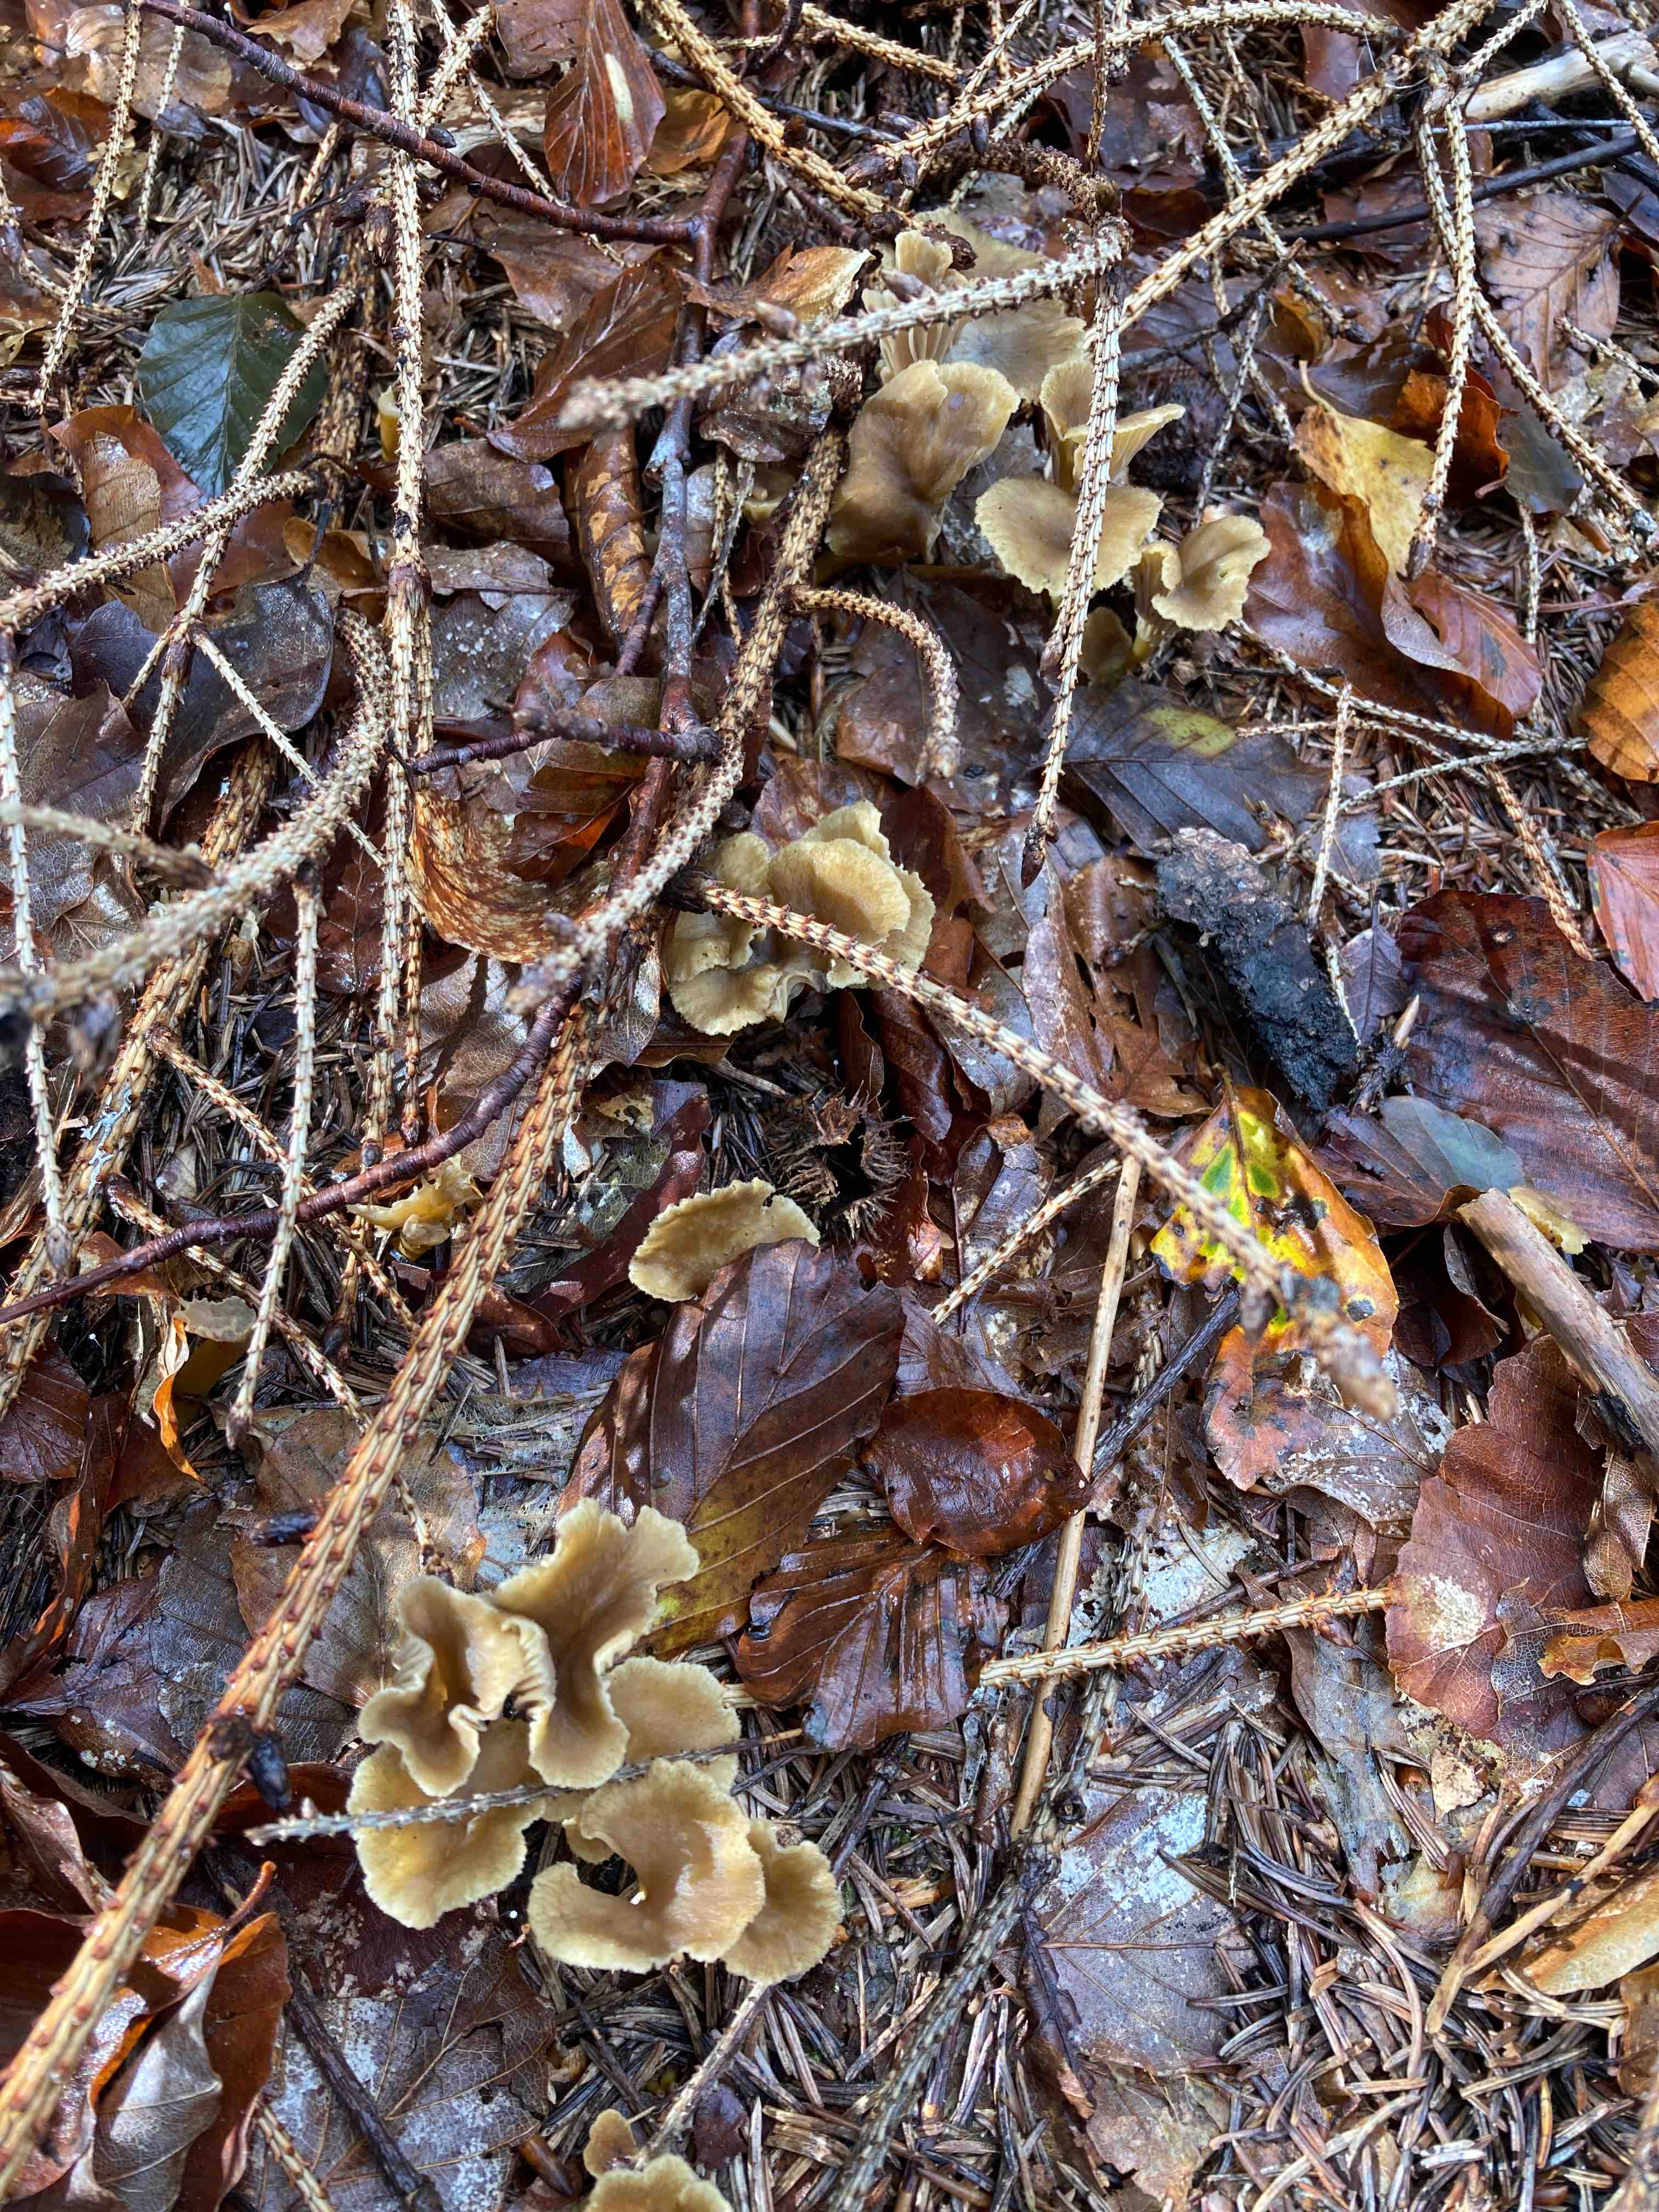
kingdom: Fungi
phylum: Basidiomycota
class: Agaricomycetes
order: Cantharellales
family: Hydnaceae
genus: Craterellus
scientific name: Craterellus tubaeformis
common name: tragt-kantarel
